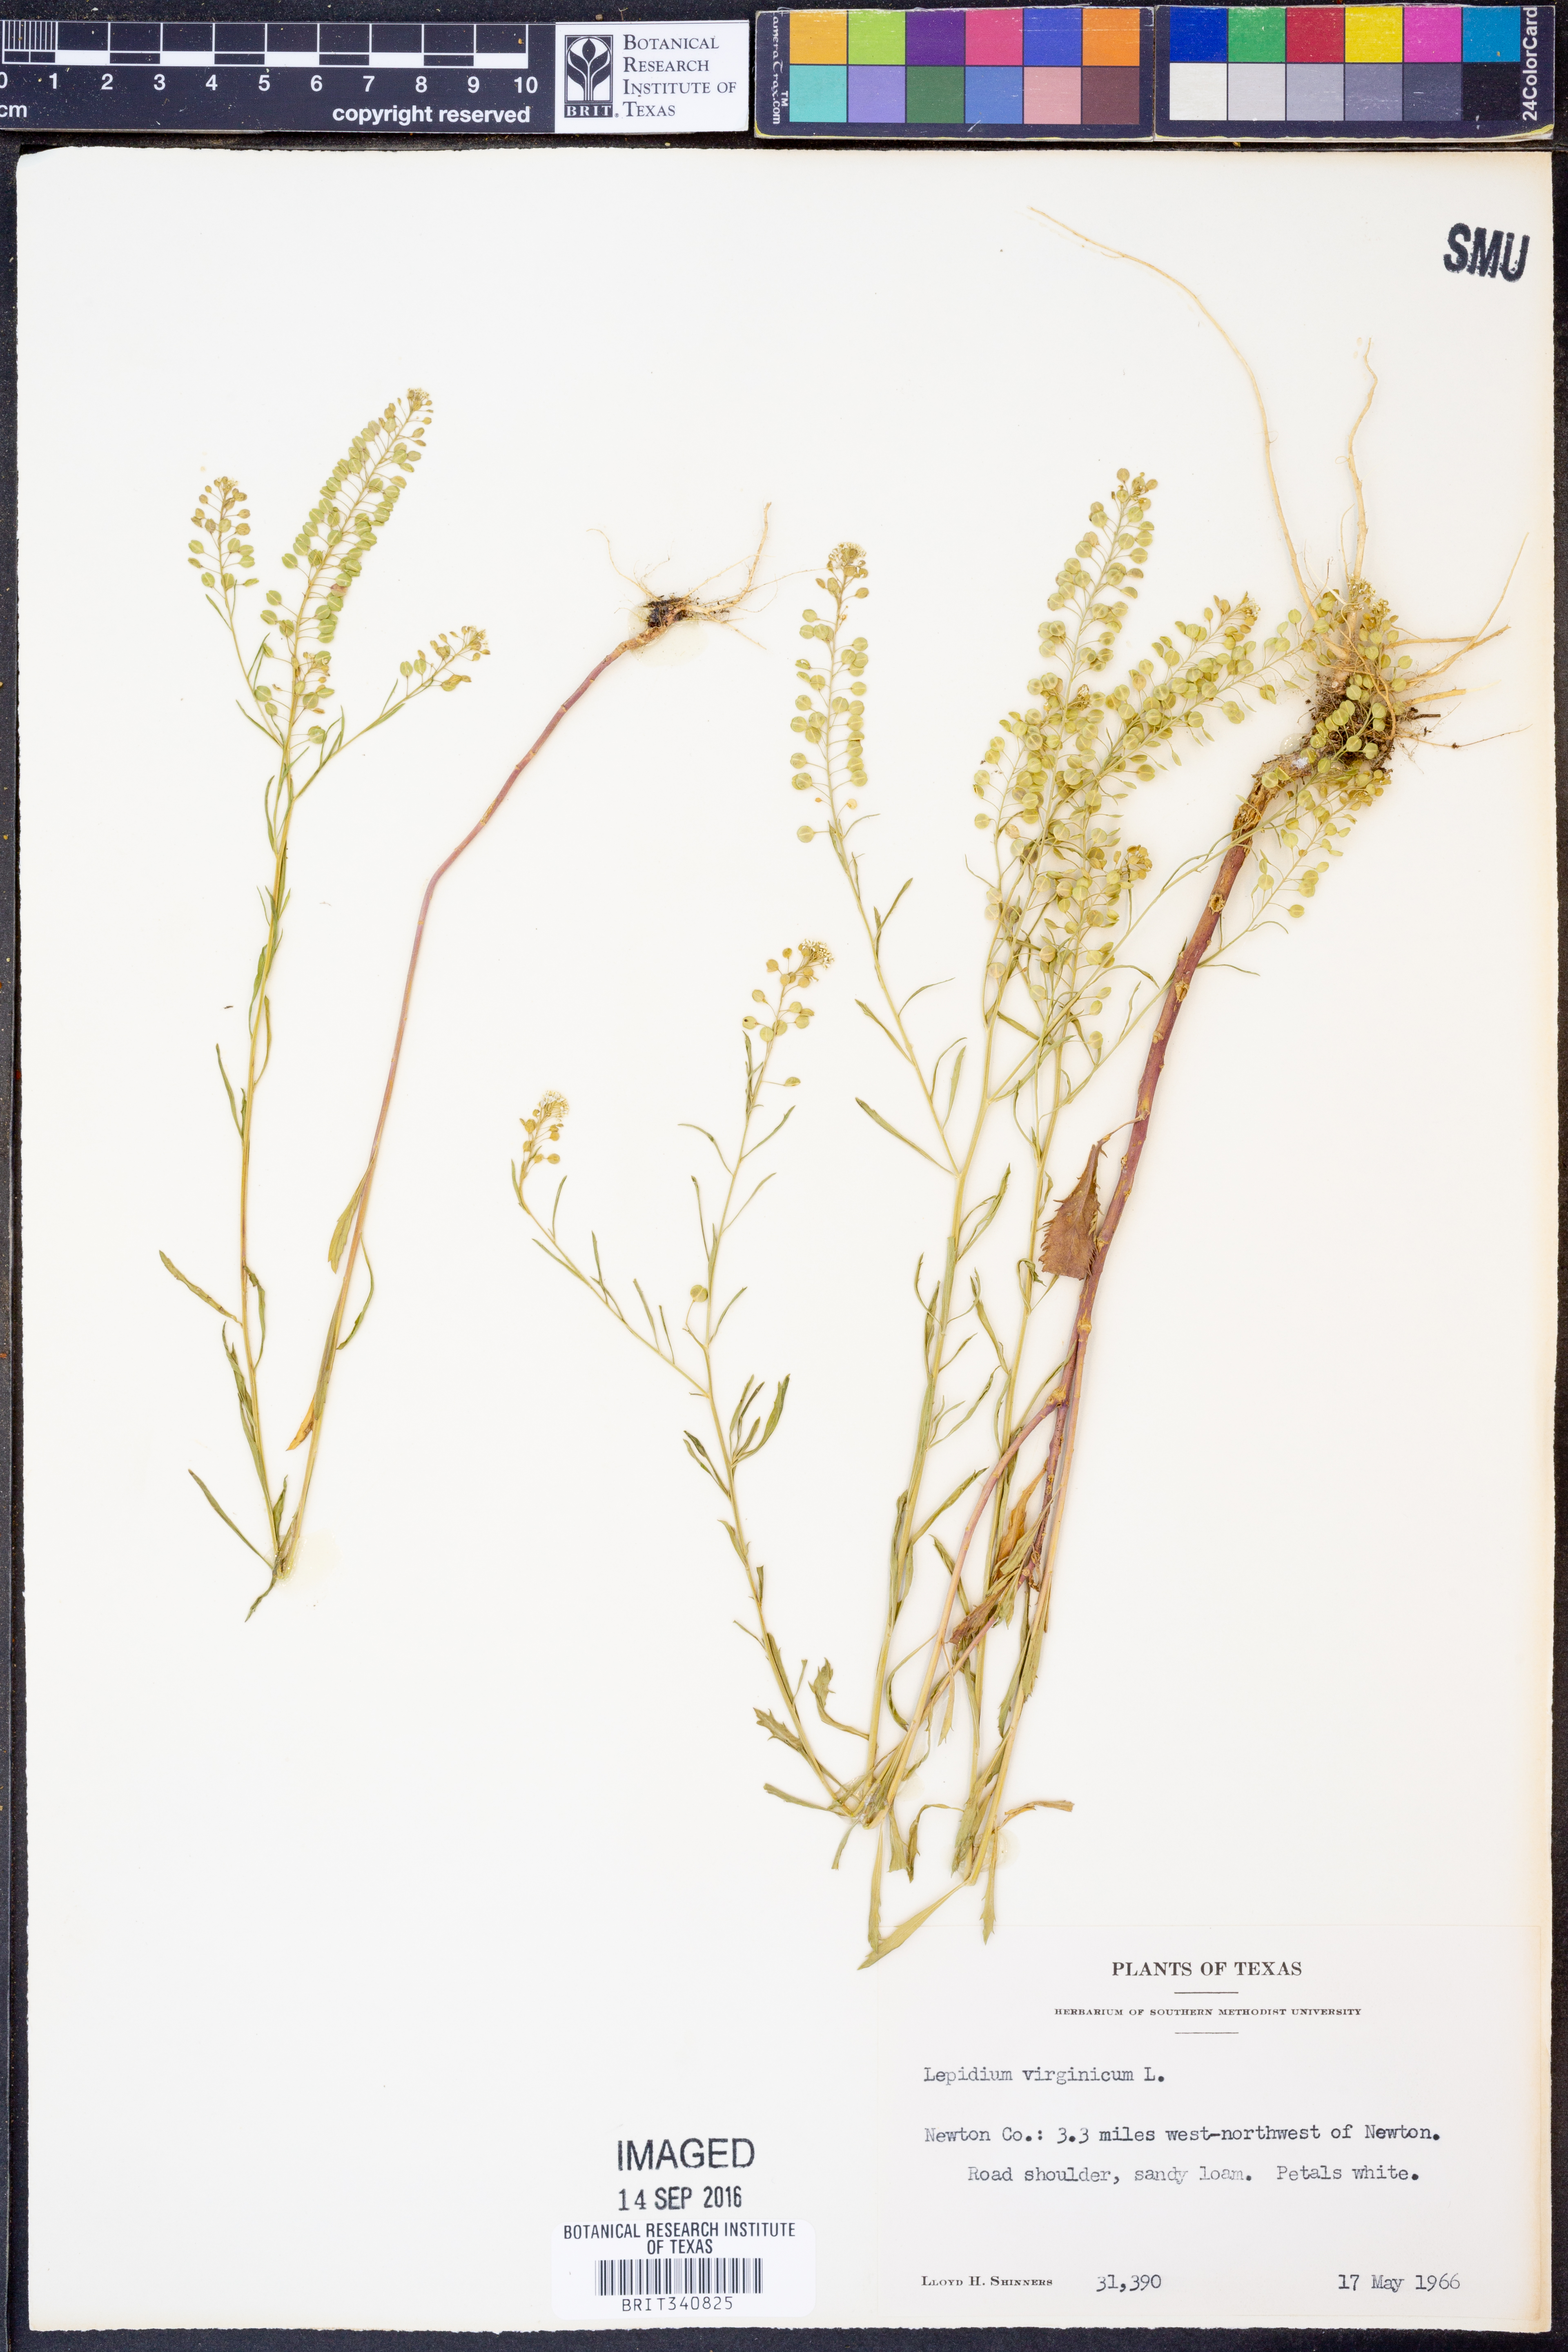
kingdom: Plantae
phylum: Tracheophyta
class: Magnoliopsida
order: Brassicales
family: Brassicaceae
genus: Lepidium
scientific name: Lepidium virginicum
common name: Least pepperwort
